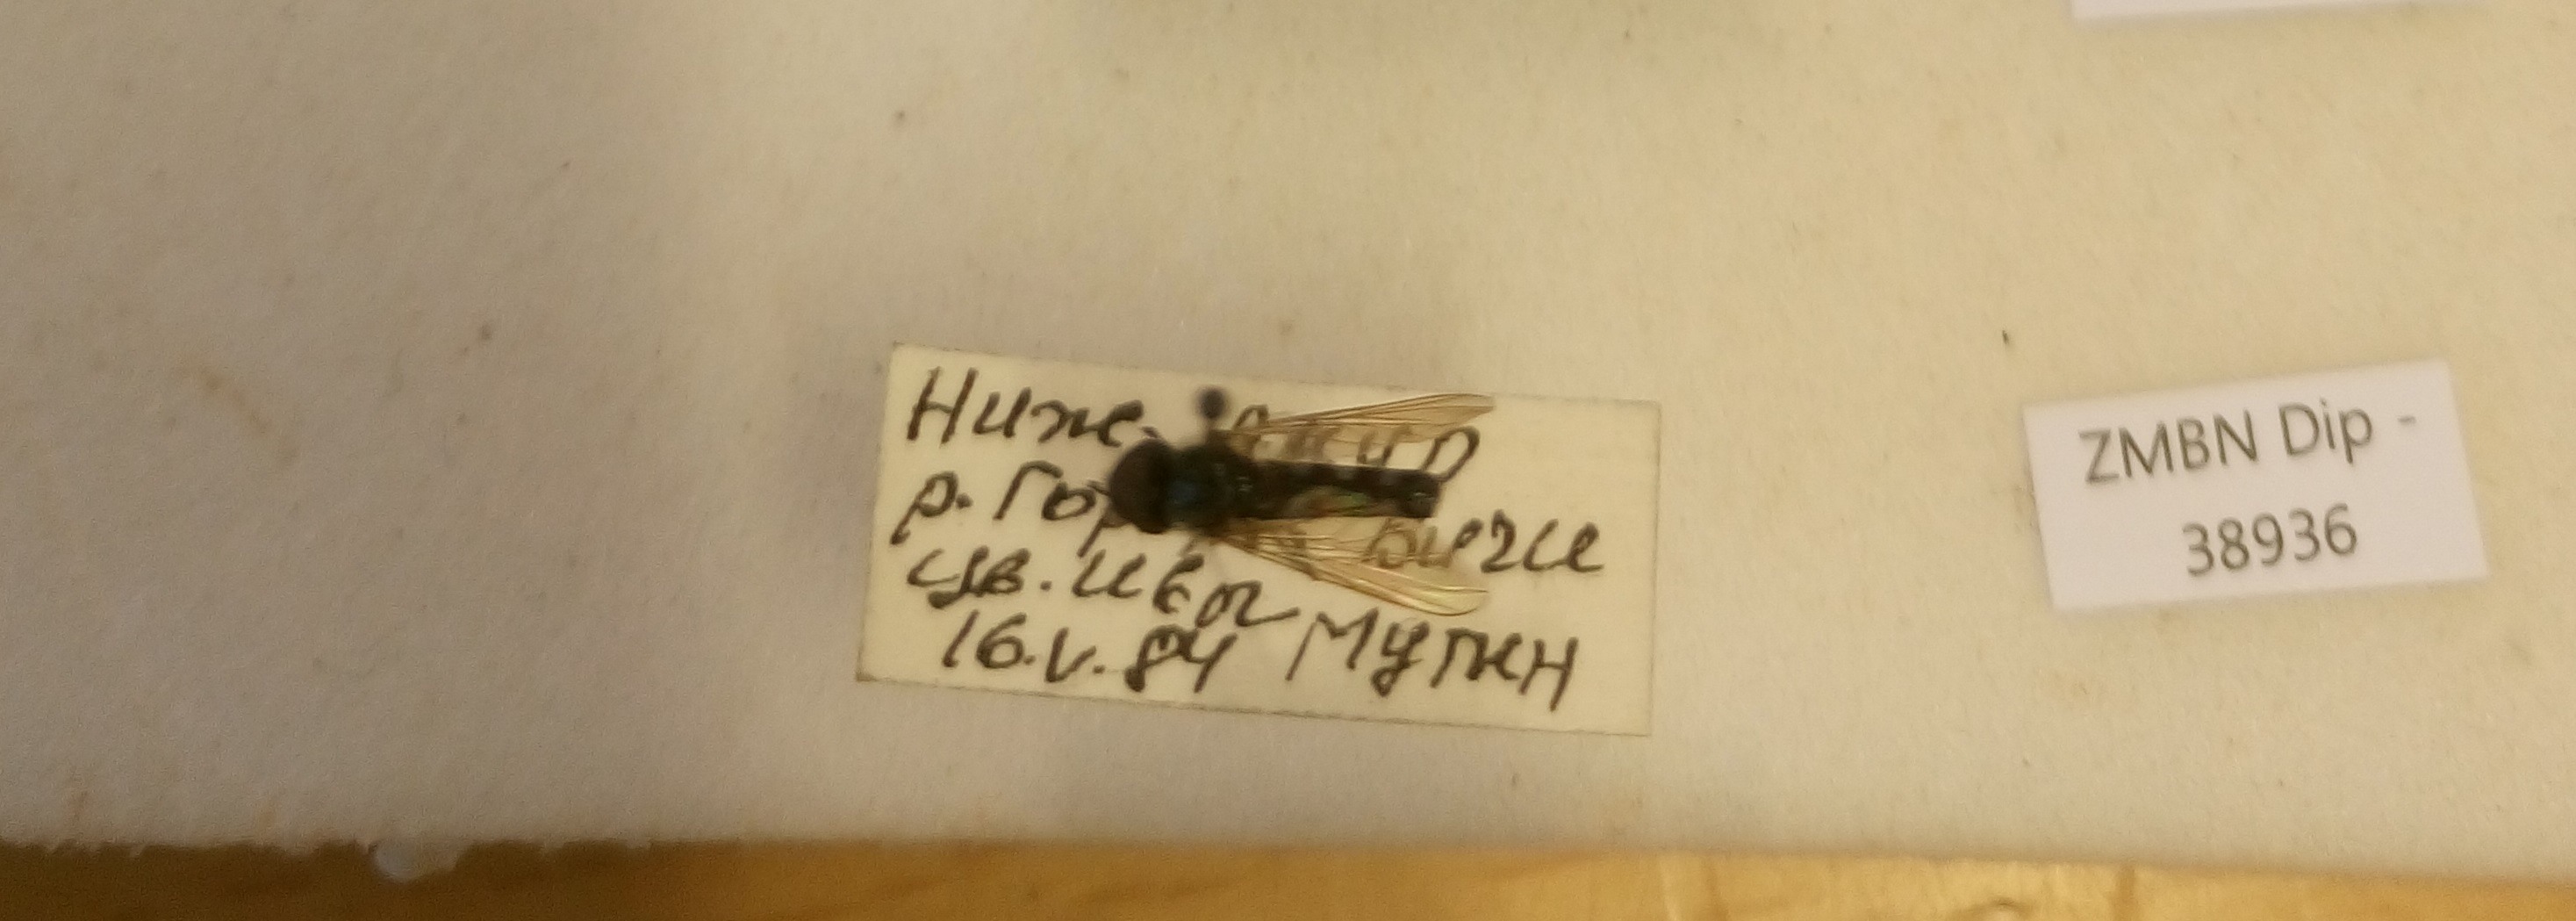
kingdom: Animalia
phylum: Arthropoda
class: Insecta
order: Diptera
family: Syrphidae
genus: Platycheirus
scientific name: Platycheirus discimanus
